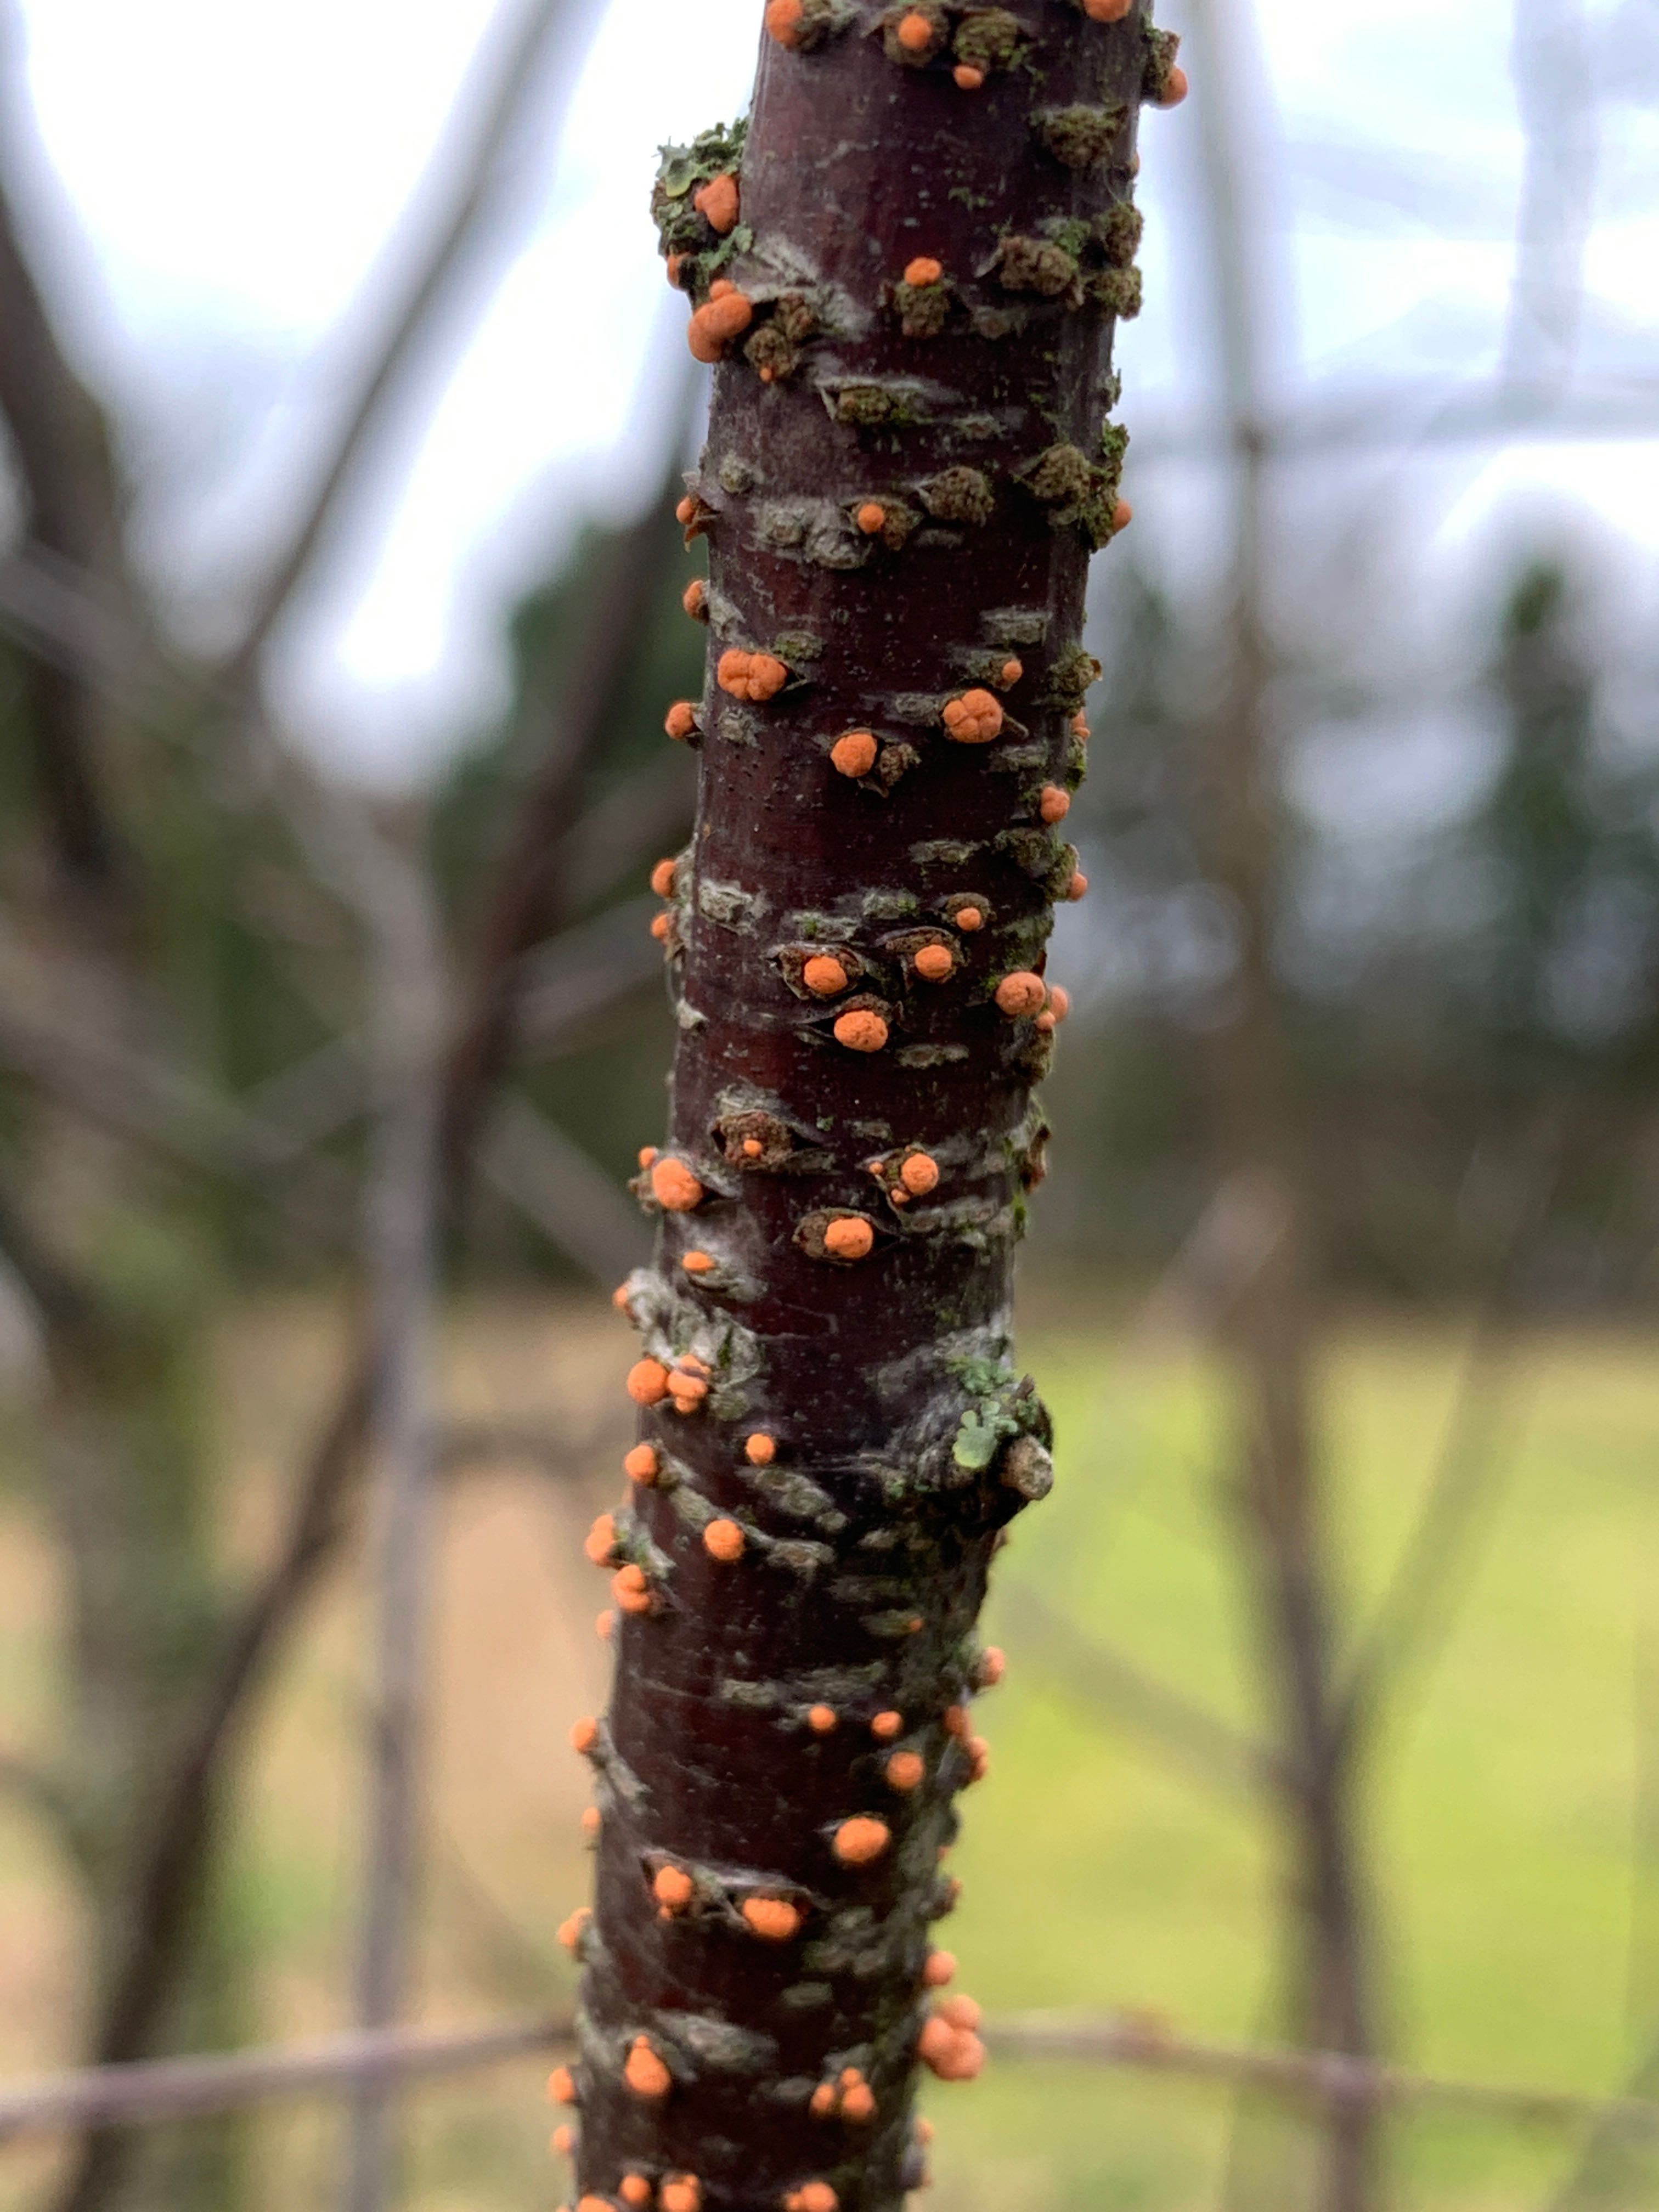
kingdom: Fungi
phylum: Ascomycota
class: Sordariomycetes
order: Hypocreales
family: Nectriaceae
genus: Nectria
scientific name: Nectria cinnabarina
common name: almindelig cinnobersvamp
